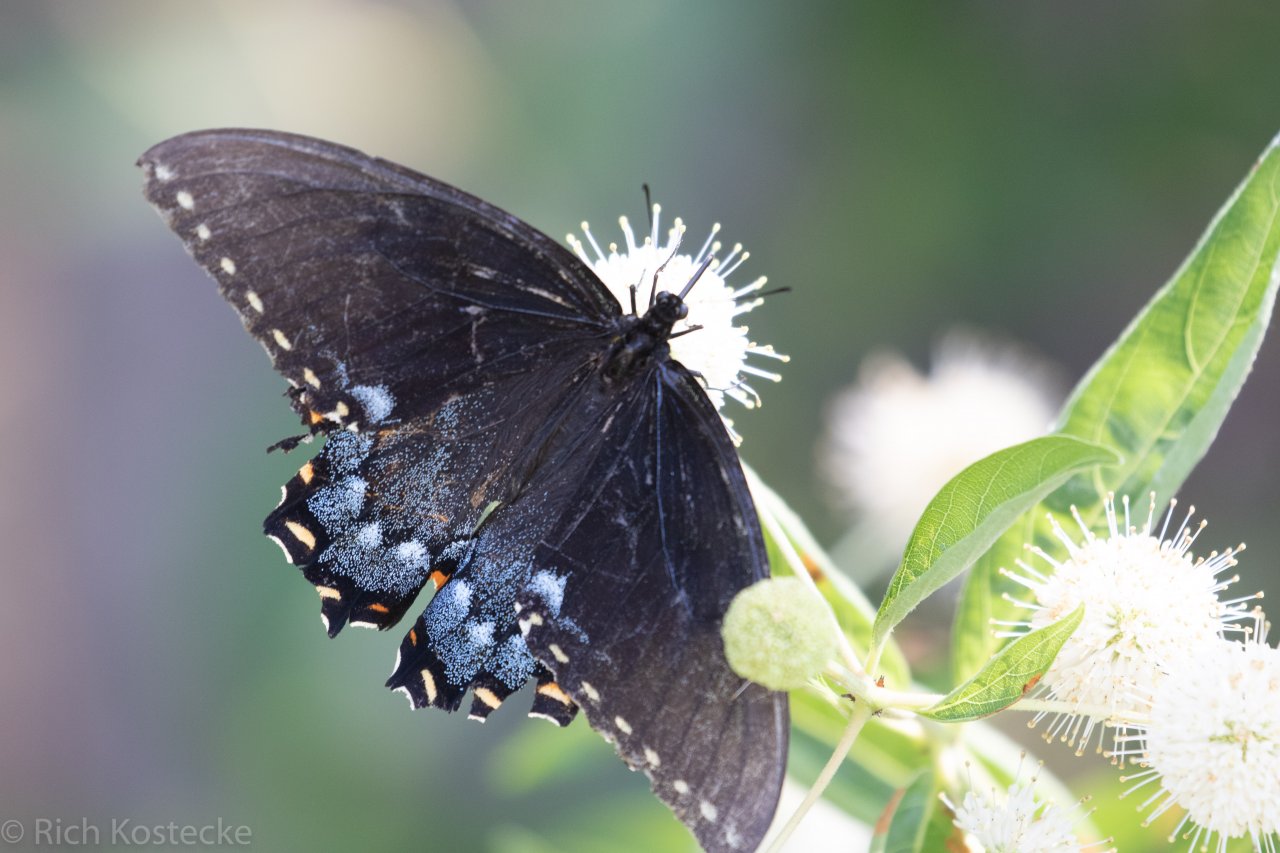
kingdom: Animalia
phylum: Arthropoda
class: Insecta
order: Lepidoptera
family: Papilionidae
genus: Pterourus
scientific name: Pterourus glaucus
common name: Eastern Tiger Swallowtail
